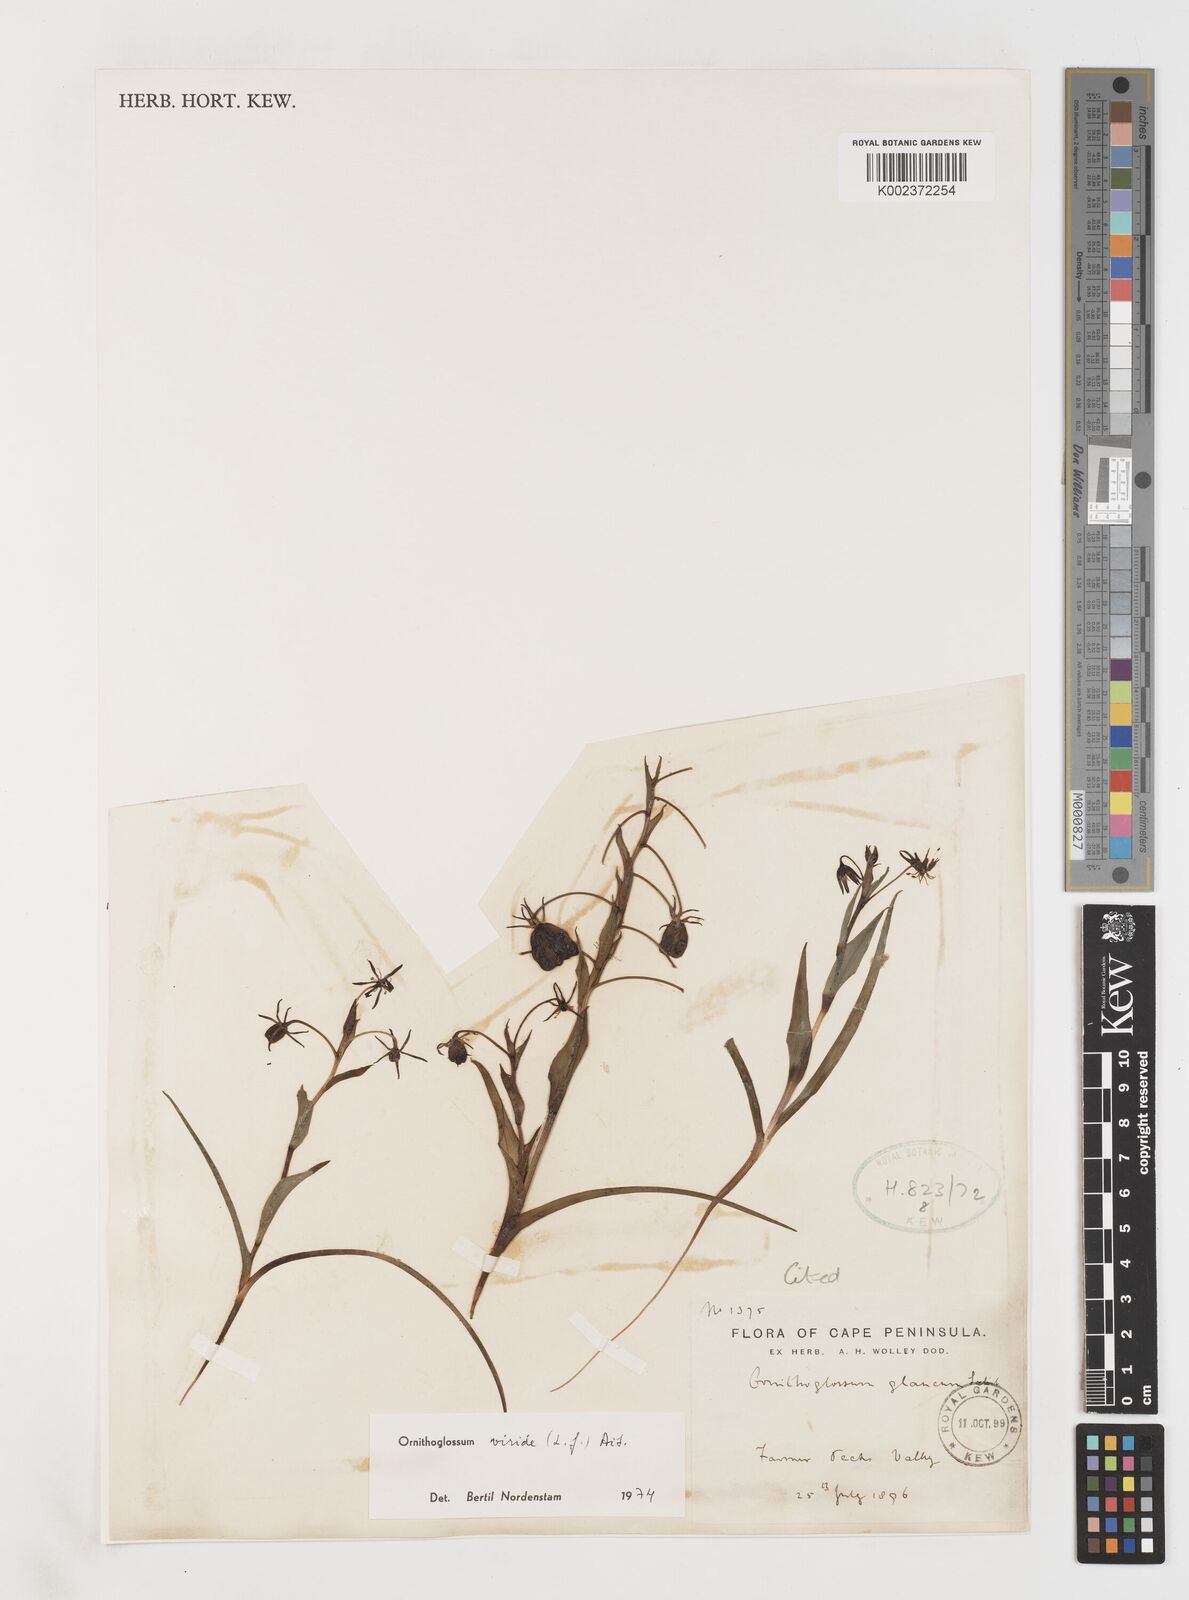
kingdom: Plantae
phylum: Tracheophyta
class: Liliopsida
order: Liliales
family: Colchicaceae
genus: Ornithoglossum
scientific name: Ornithoglossum viride
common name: Cape poison-onion
